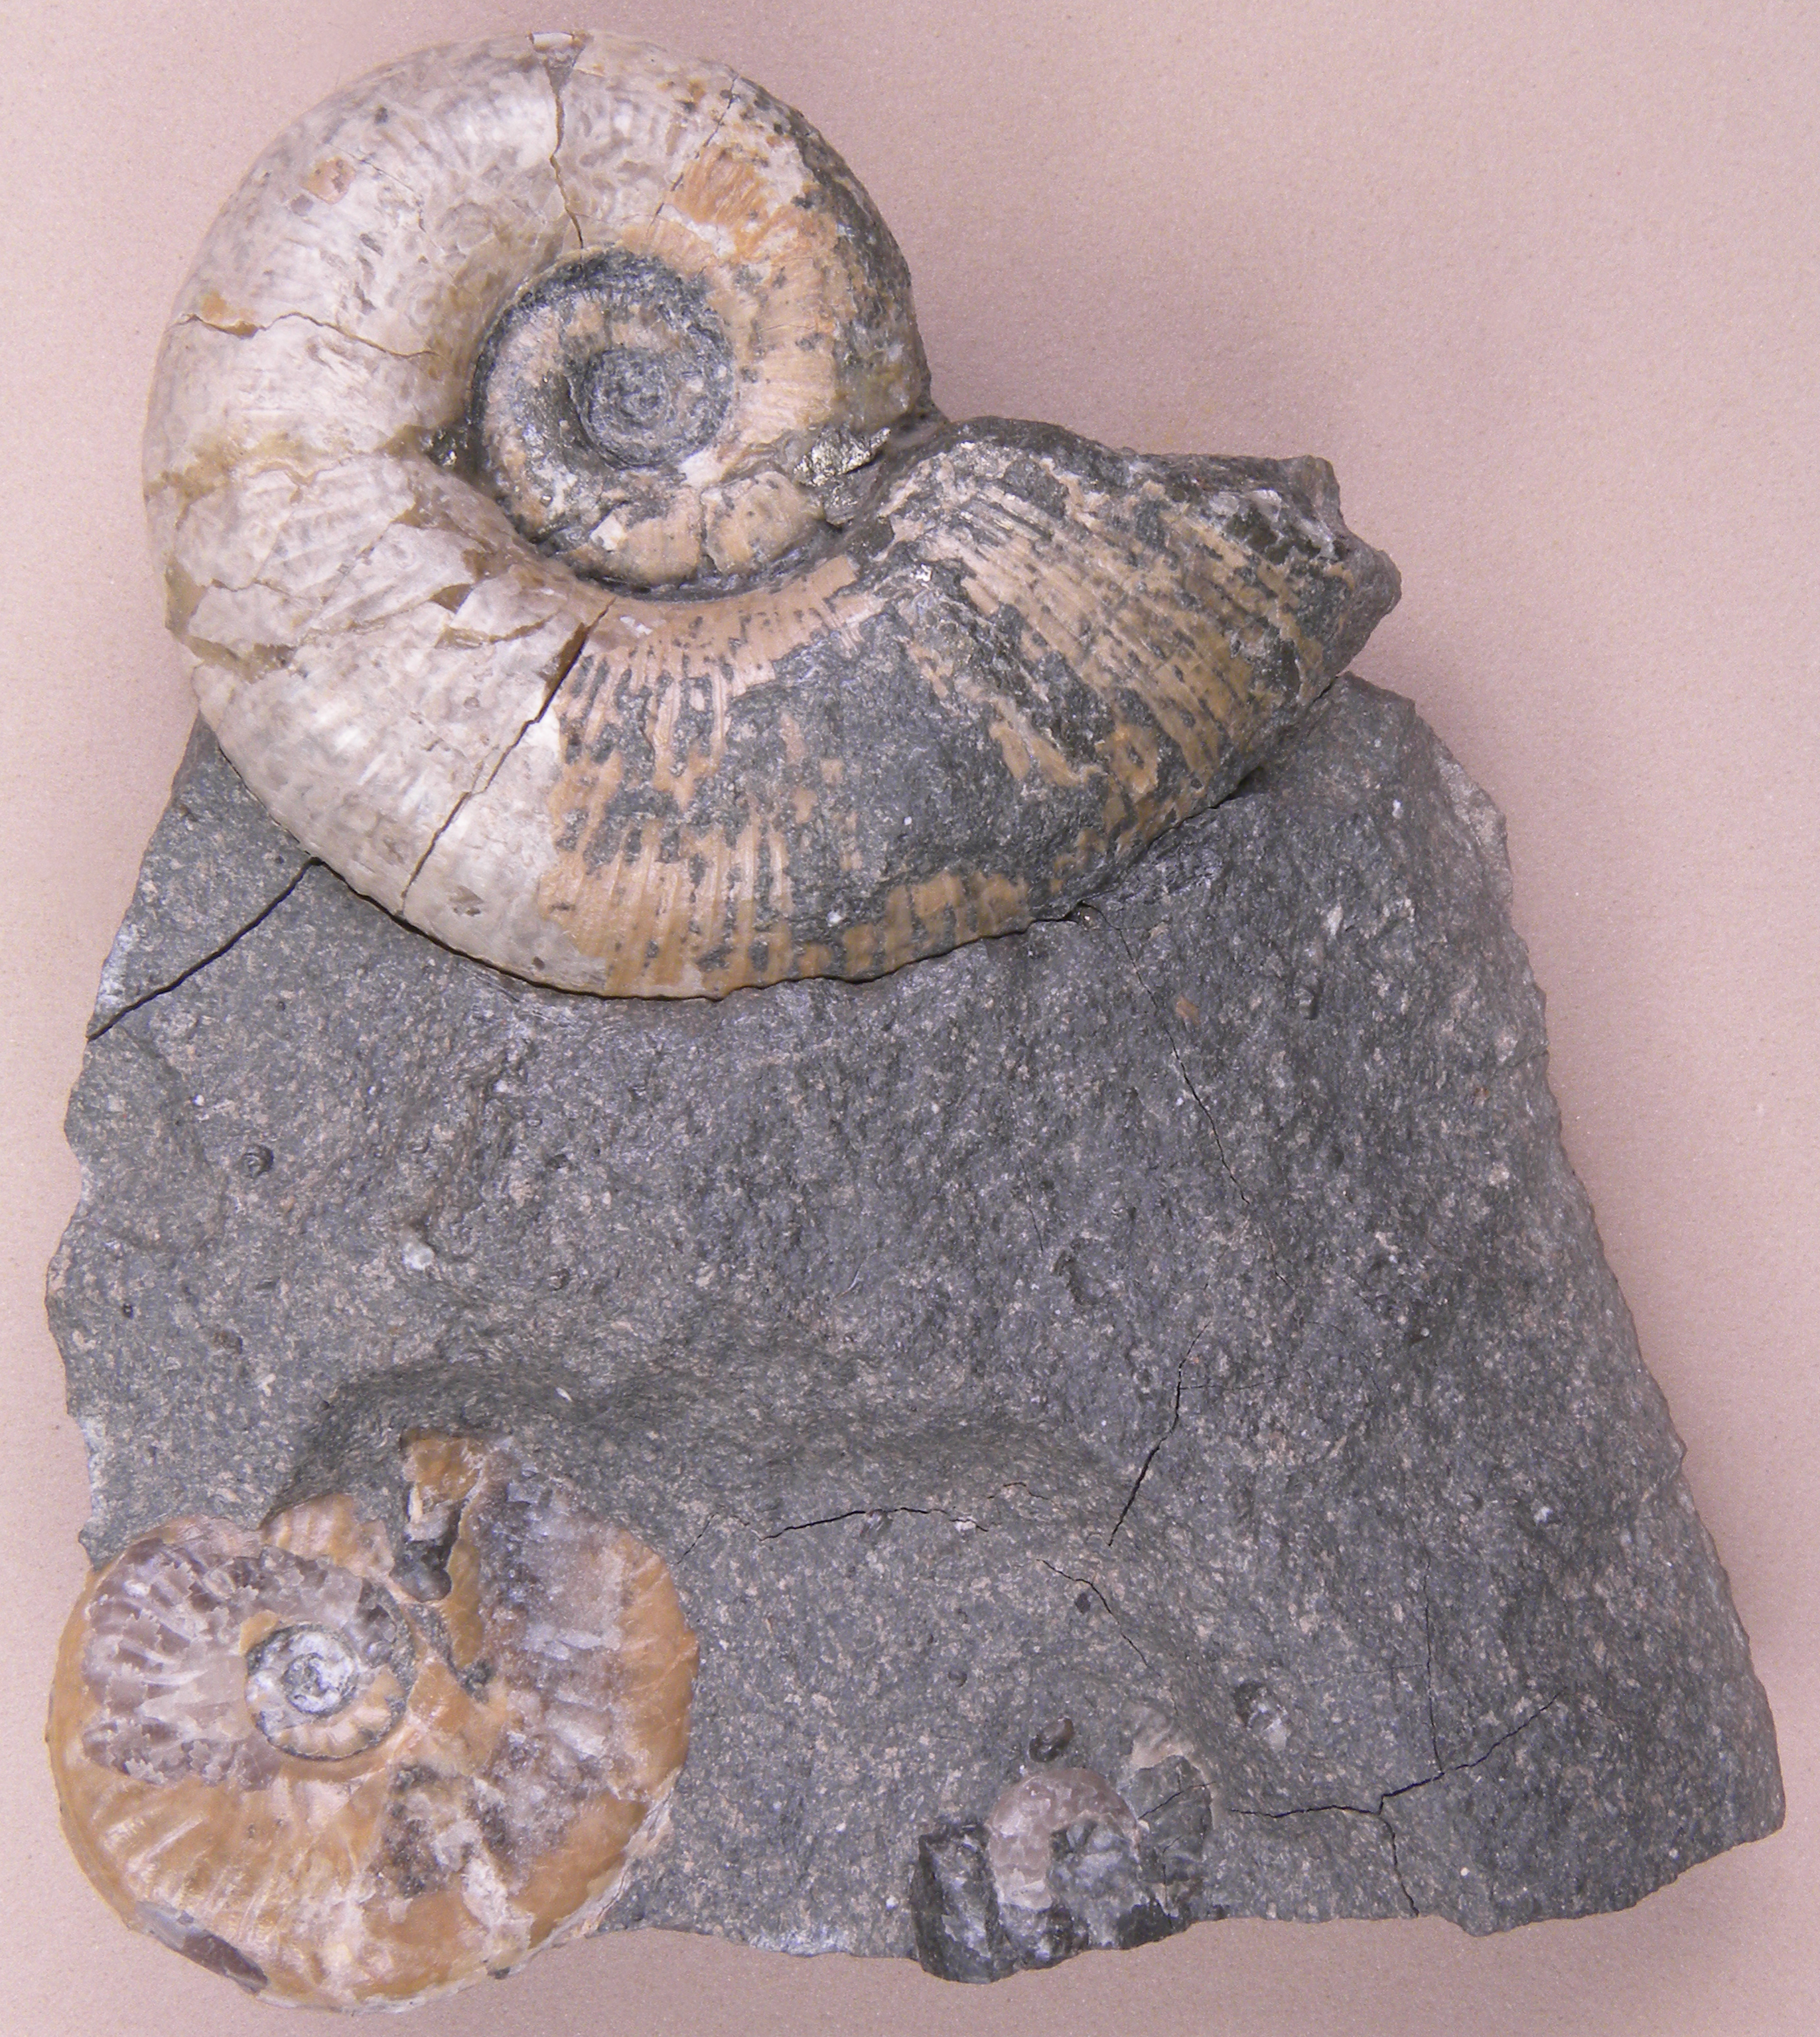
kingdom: Animalia
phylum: Mollusca
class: Cephalopoda
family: Lytoceratidae
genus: Lytoceras
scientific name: Lytoceras Ammonites siemensi
